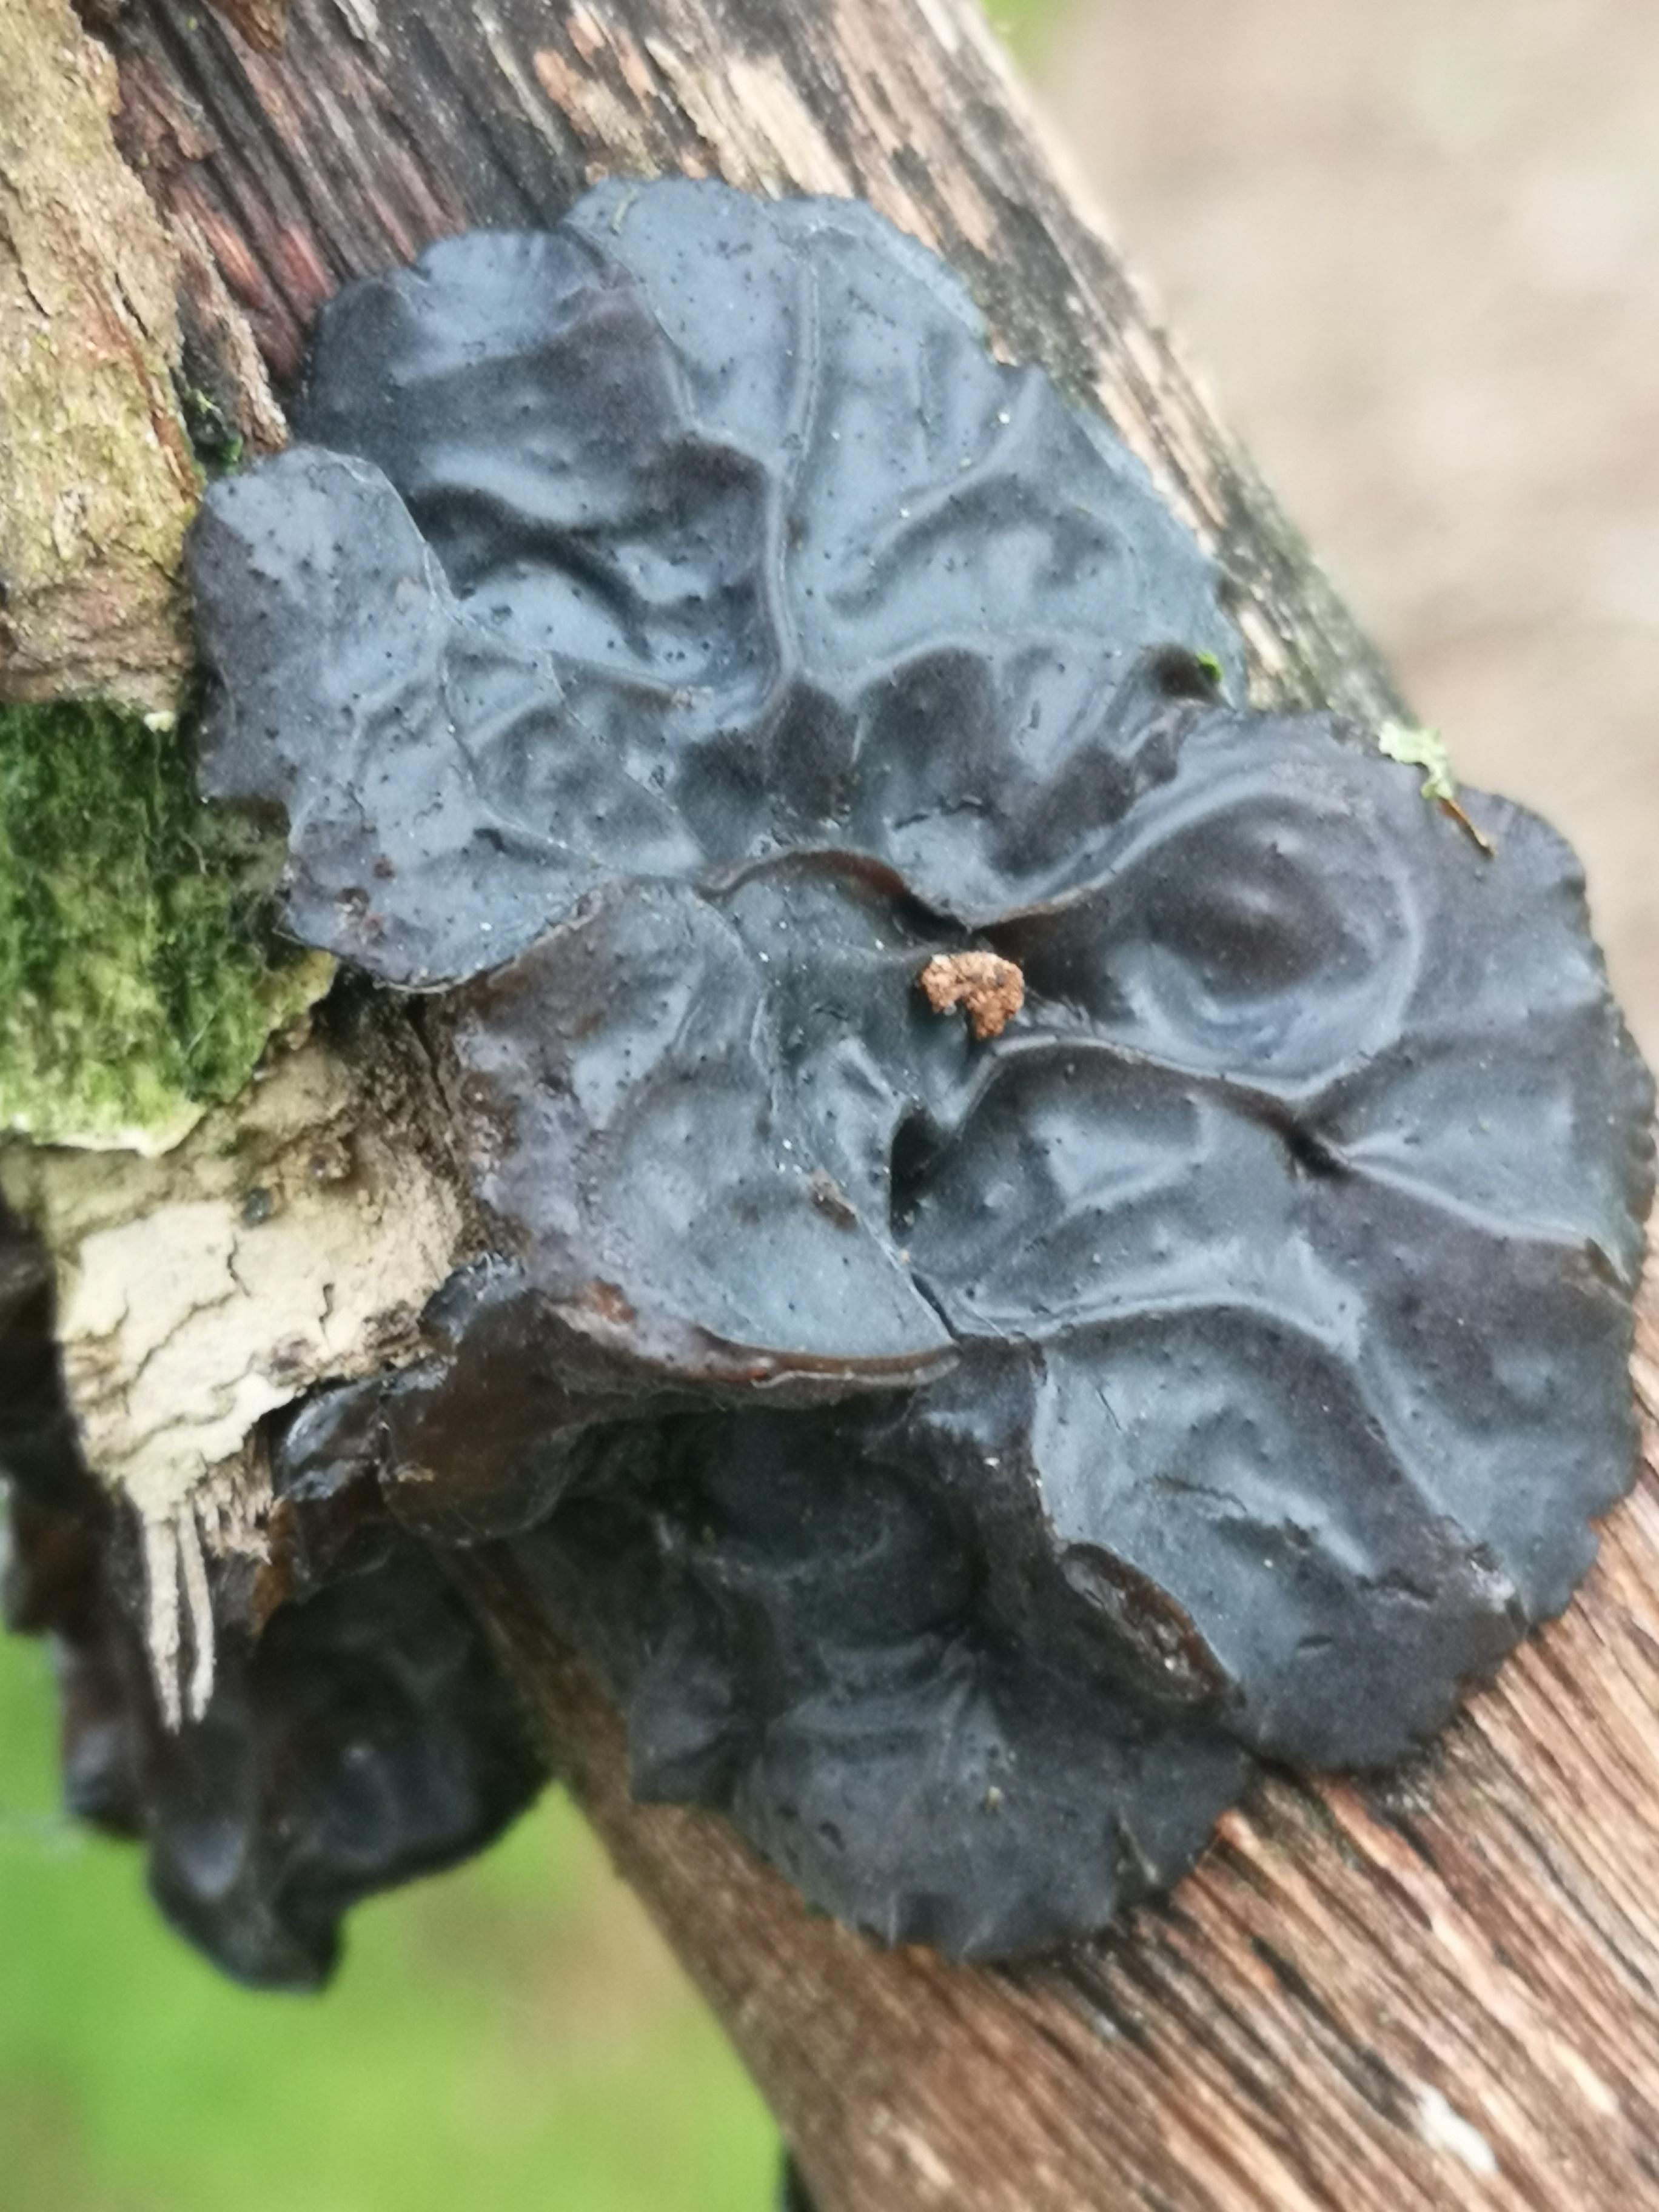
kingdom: Fungi
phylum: Basidiomycota
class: Agaricomycetes
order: Auriculariales
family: Auriculariaceae
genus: Exidia
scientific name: Exidia glandulosa
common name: ege-bævretop
